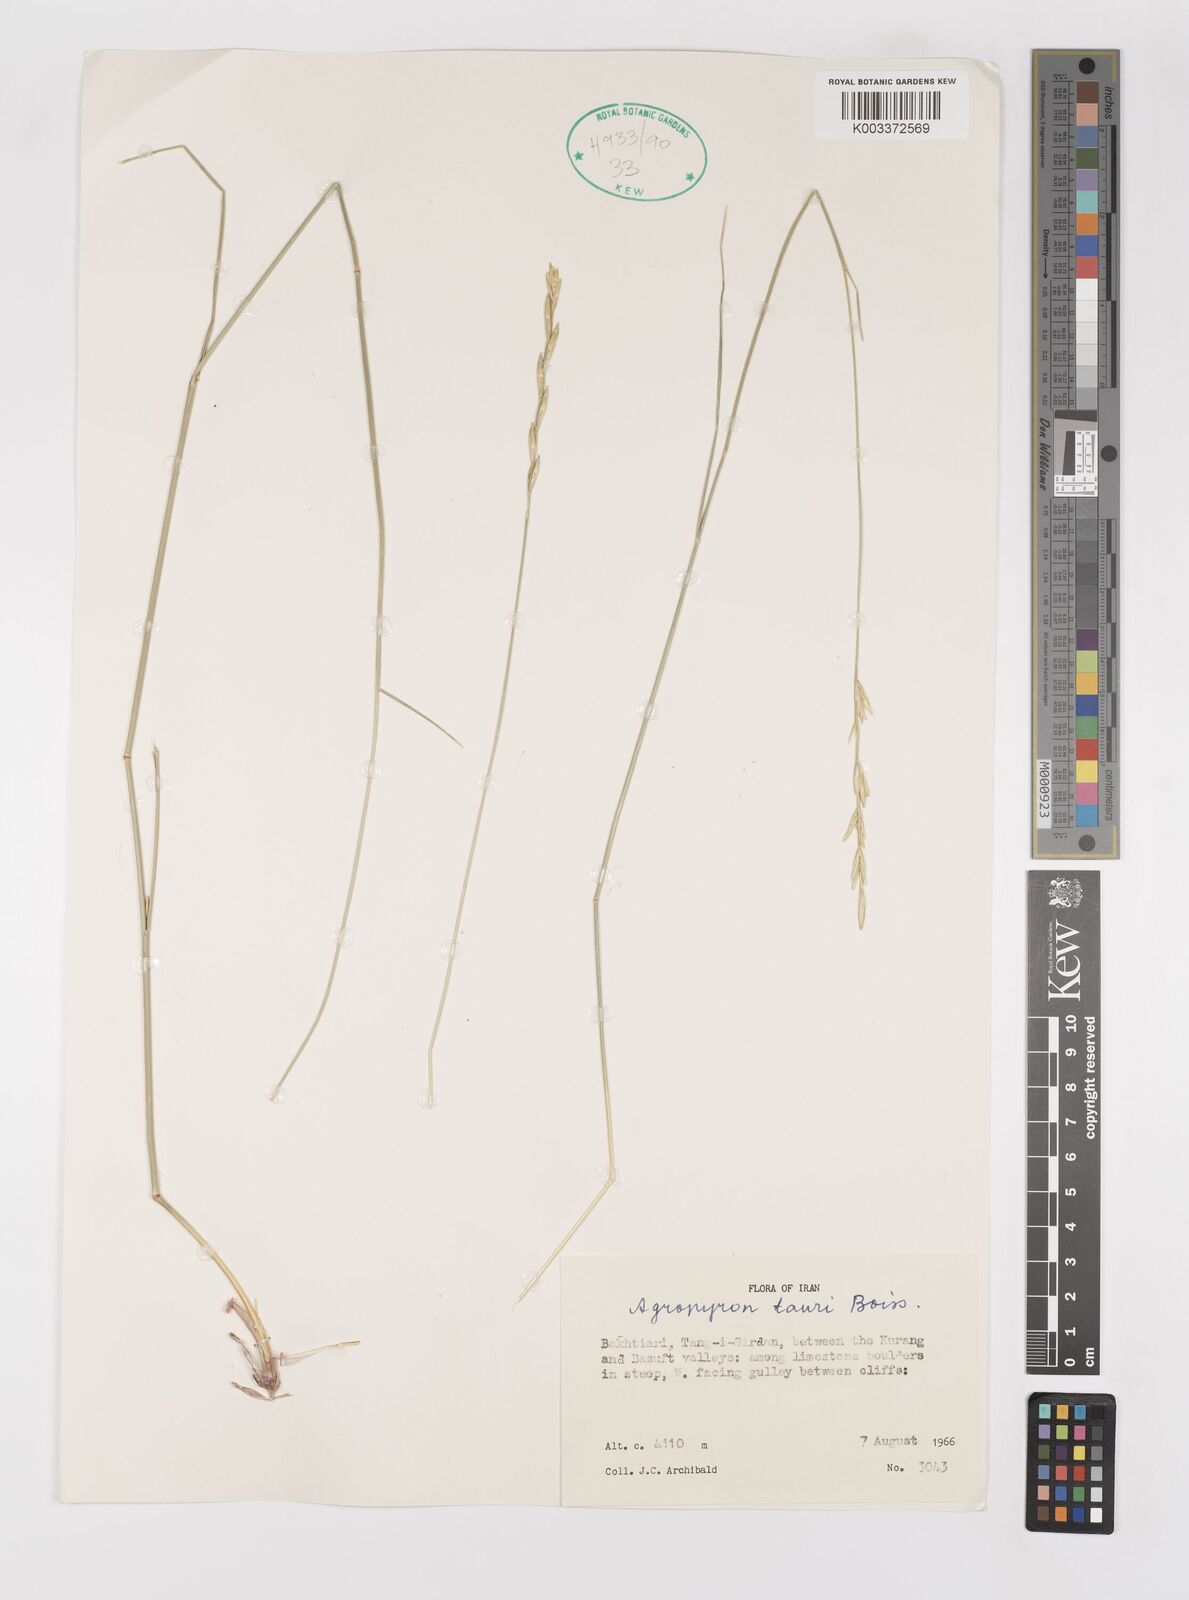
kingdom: Plantae
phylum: Tracheophyta
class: Liliopsida
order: Poales
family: Poaceae
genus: Pseudoroegneria
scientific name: Pseudoroegneria tauri
